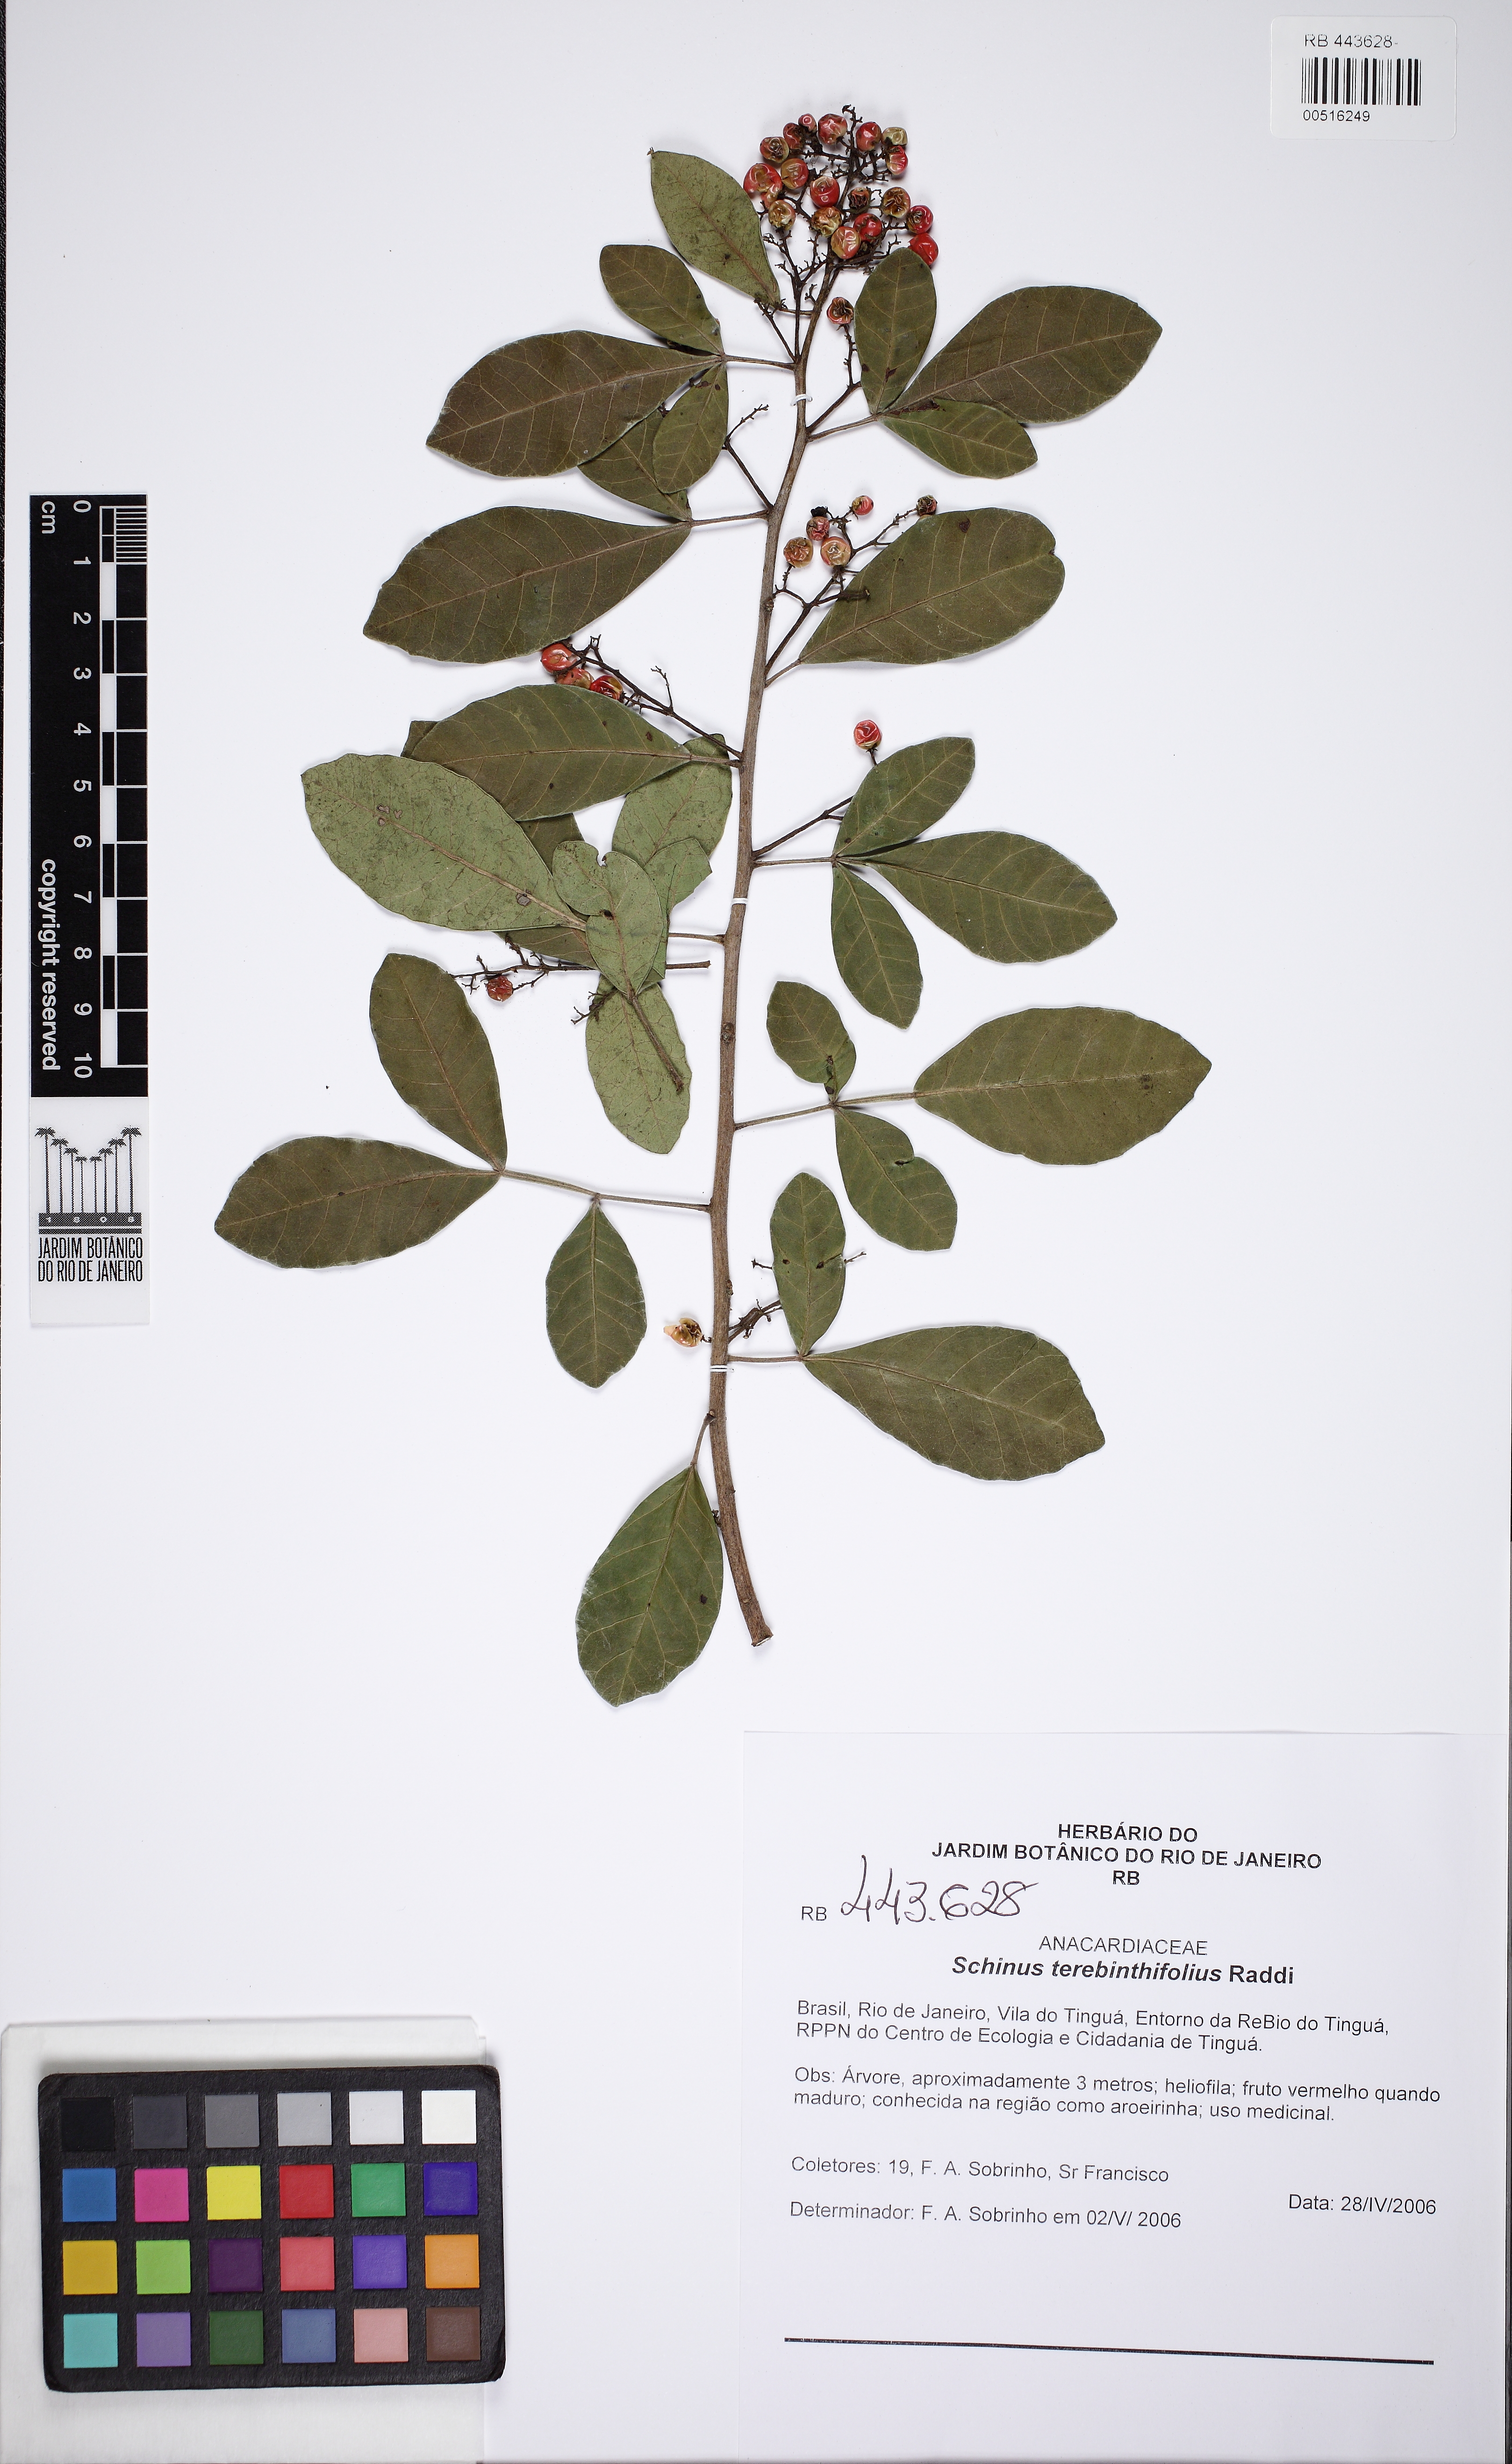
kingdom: Plantae
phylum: Tracheophyta
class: Magnoliopsida
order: Sapindales
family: Anacardiaceae
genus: Schinus
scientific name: Schinus terebinthifolia
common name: Brazilian peppertree
